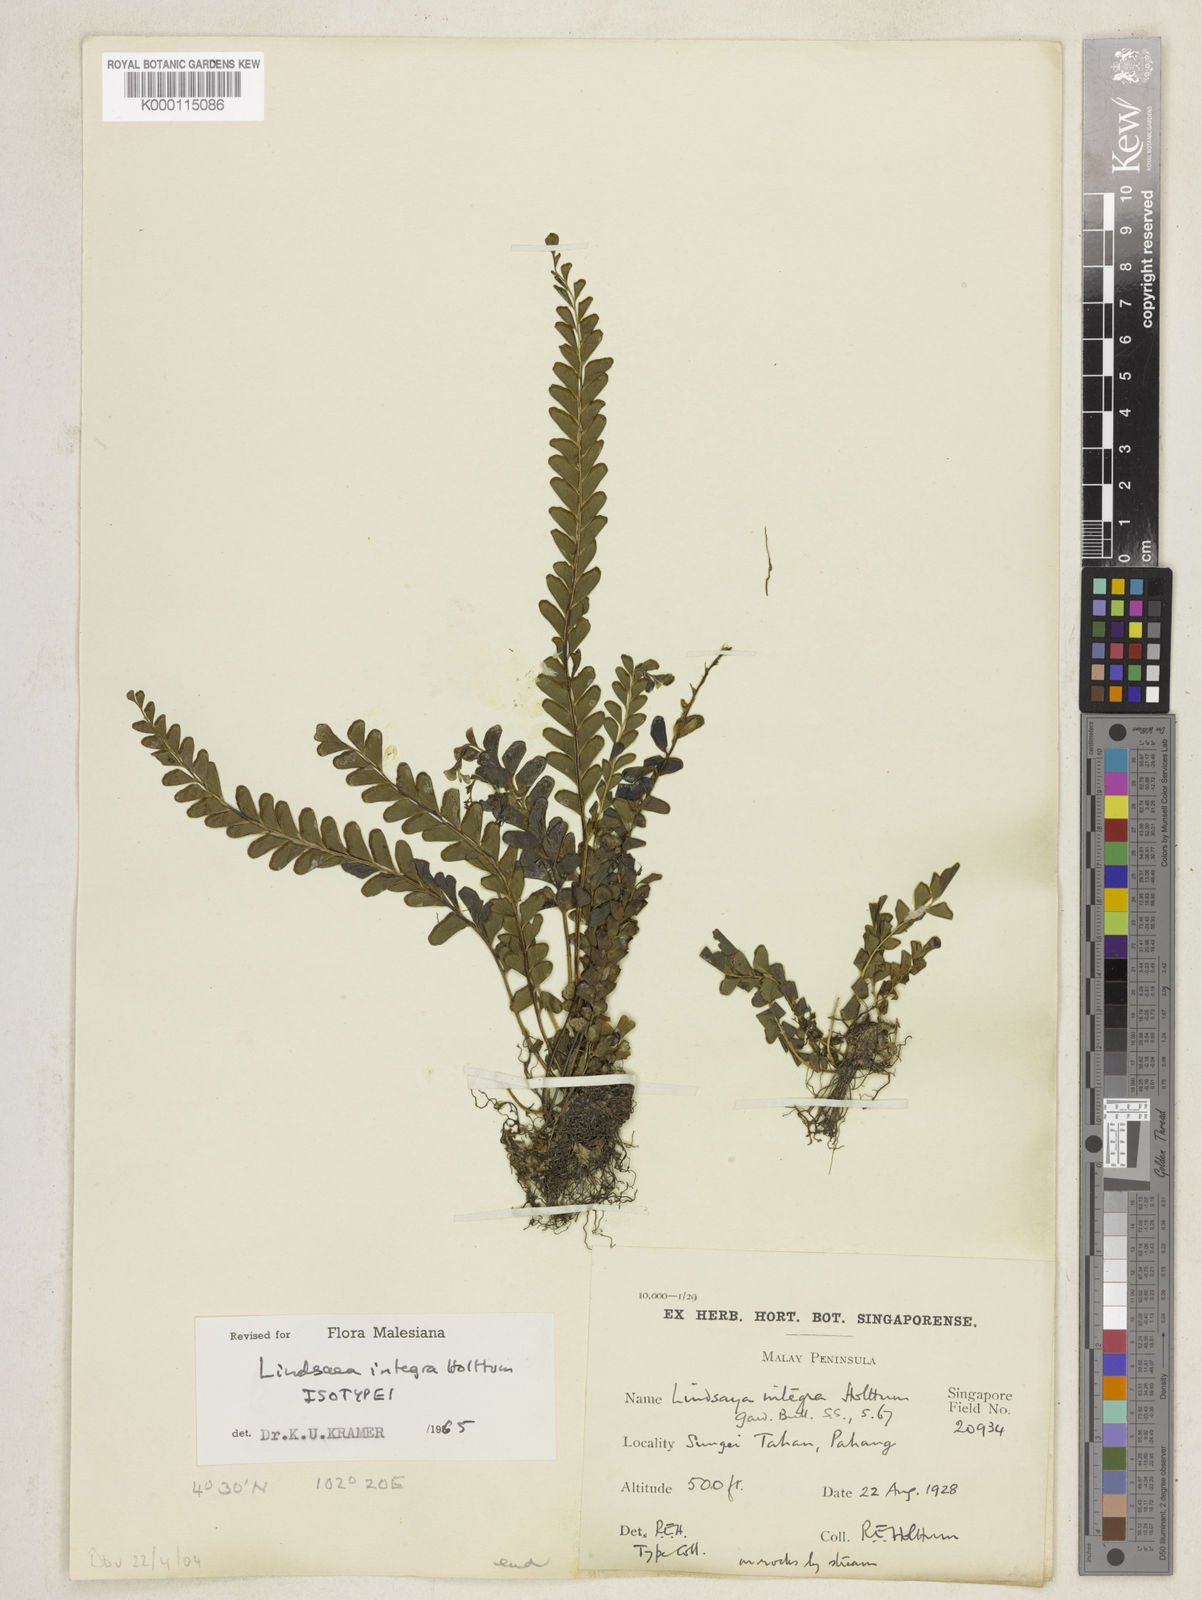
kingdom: Plantae
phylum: Tracheophyta
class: Polypodiopsida
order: Polypodiales
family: Lindsaeaceae
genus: Lindsaea
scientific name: Lindsaea integra
